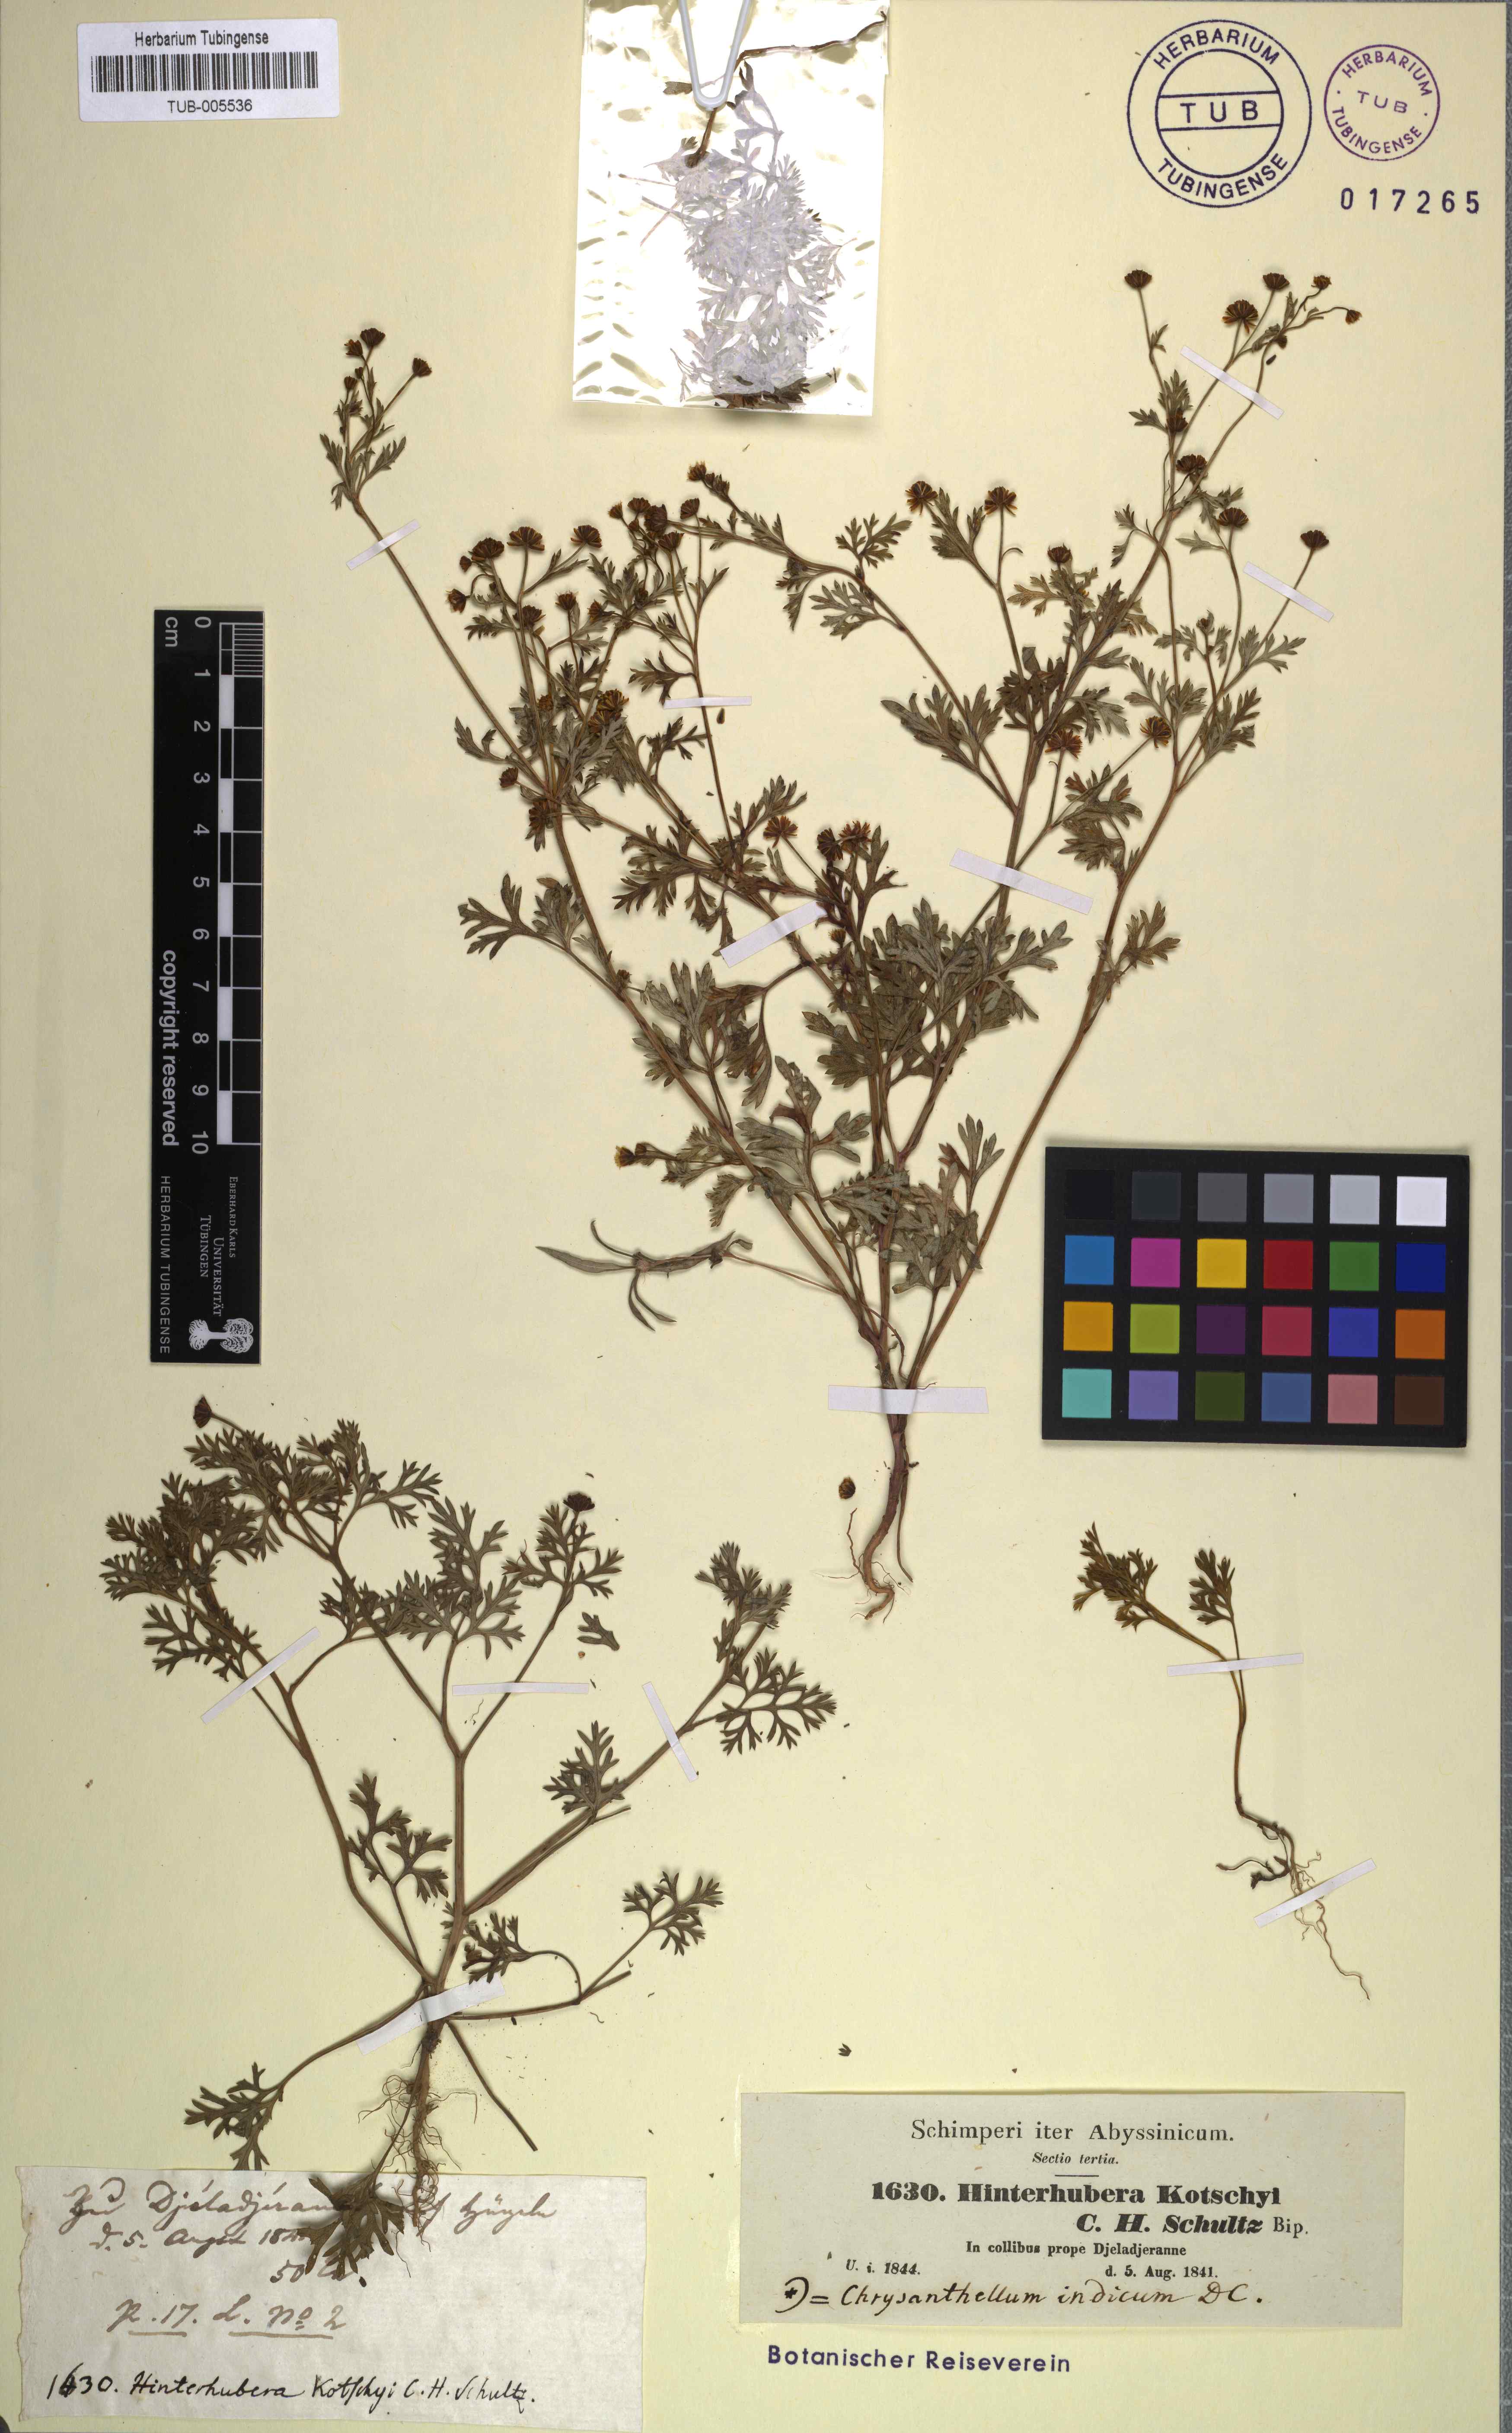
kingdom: Plantae
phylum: Tracheophyta
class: Magnoliopsida
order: Asterales
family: Asteraceae
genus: Chrysanthellum
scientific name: Chrysanthellum indicum
